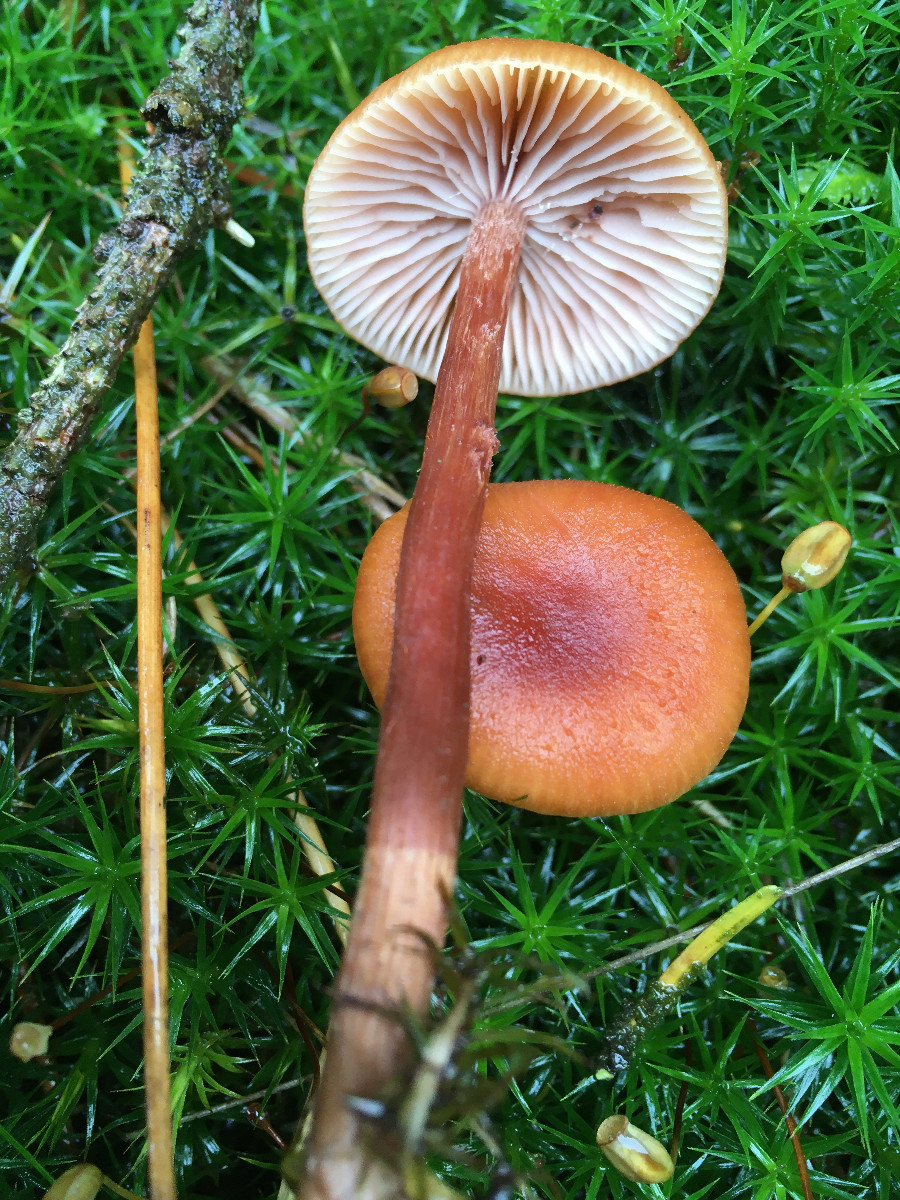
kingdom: Fungi
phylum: Basidiomycota
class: Agaricomycetes
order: Agaricales
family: Hydnangiaceae
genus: Laccaria
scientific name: Laccaria proxima
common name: stor ametysthat
